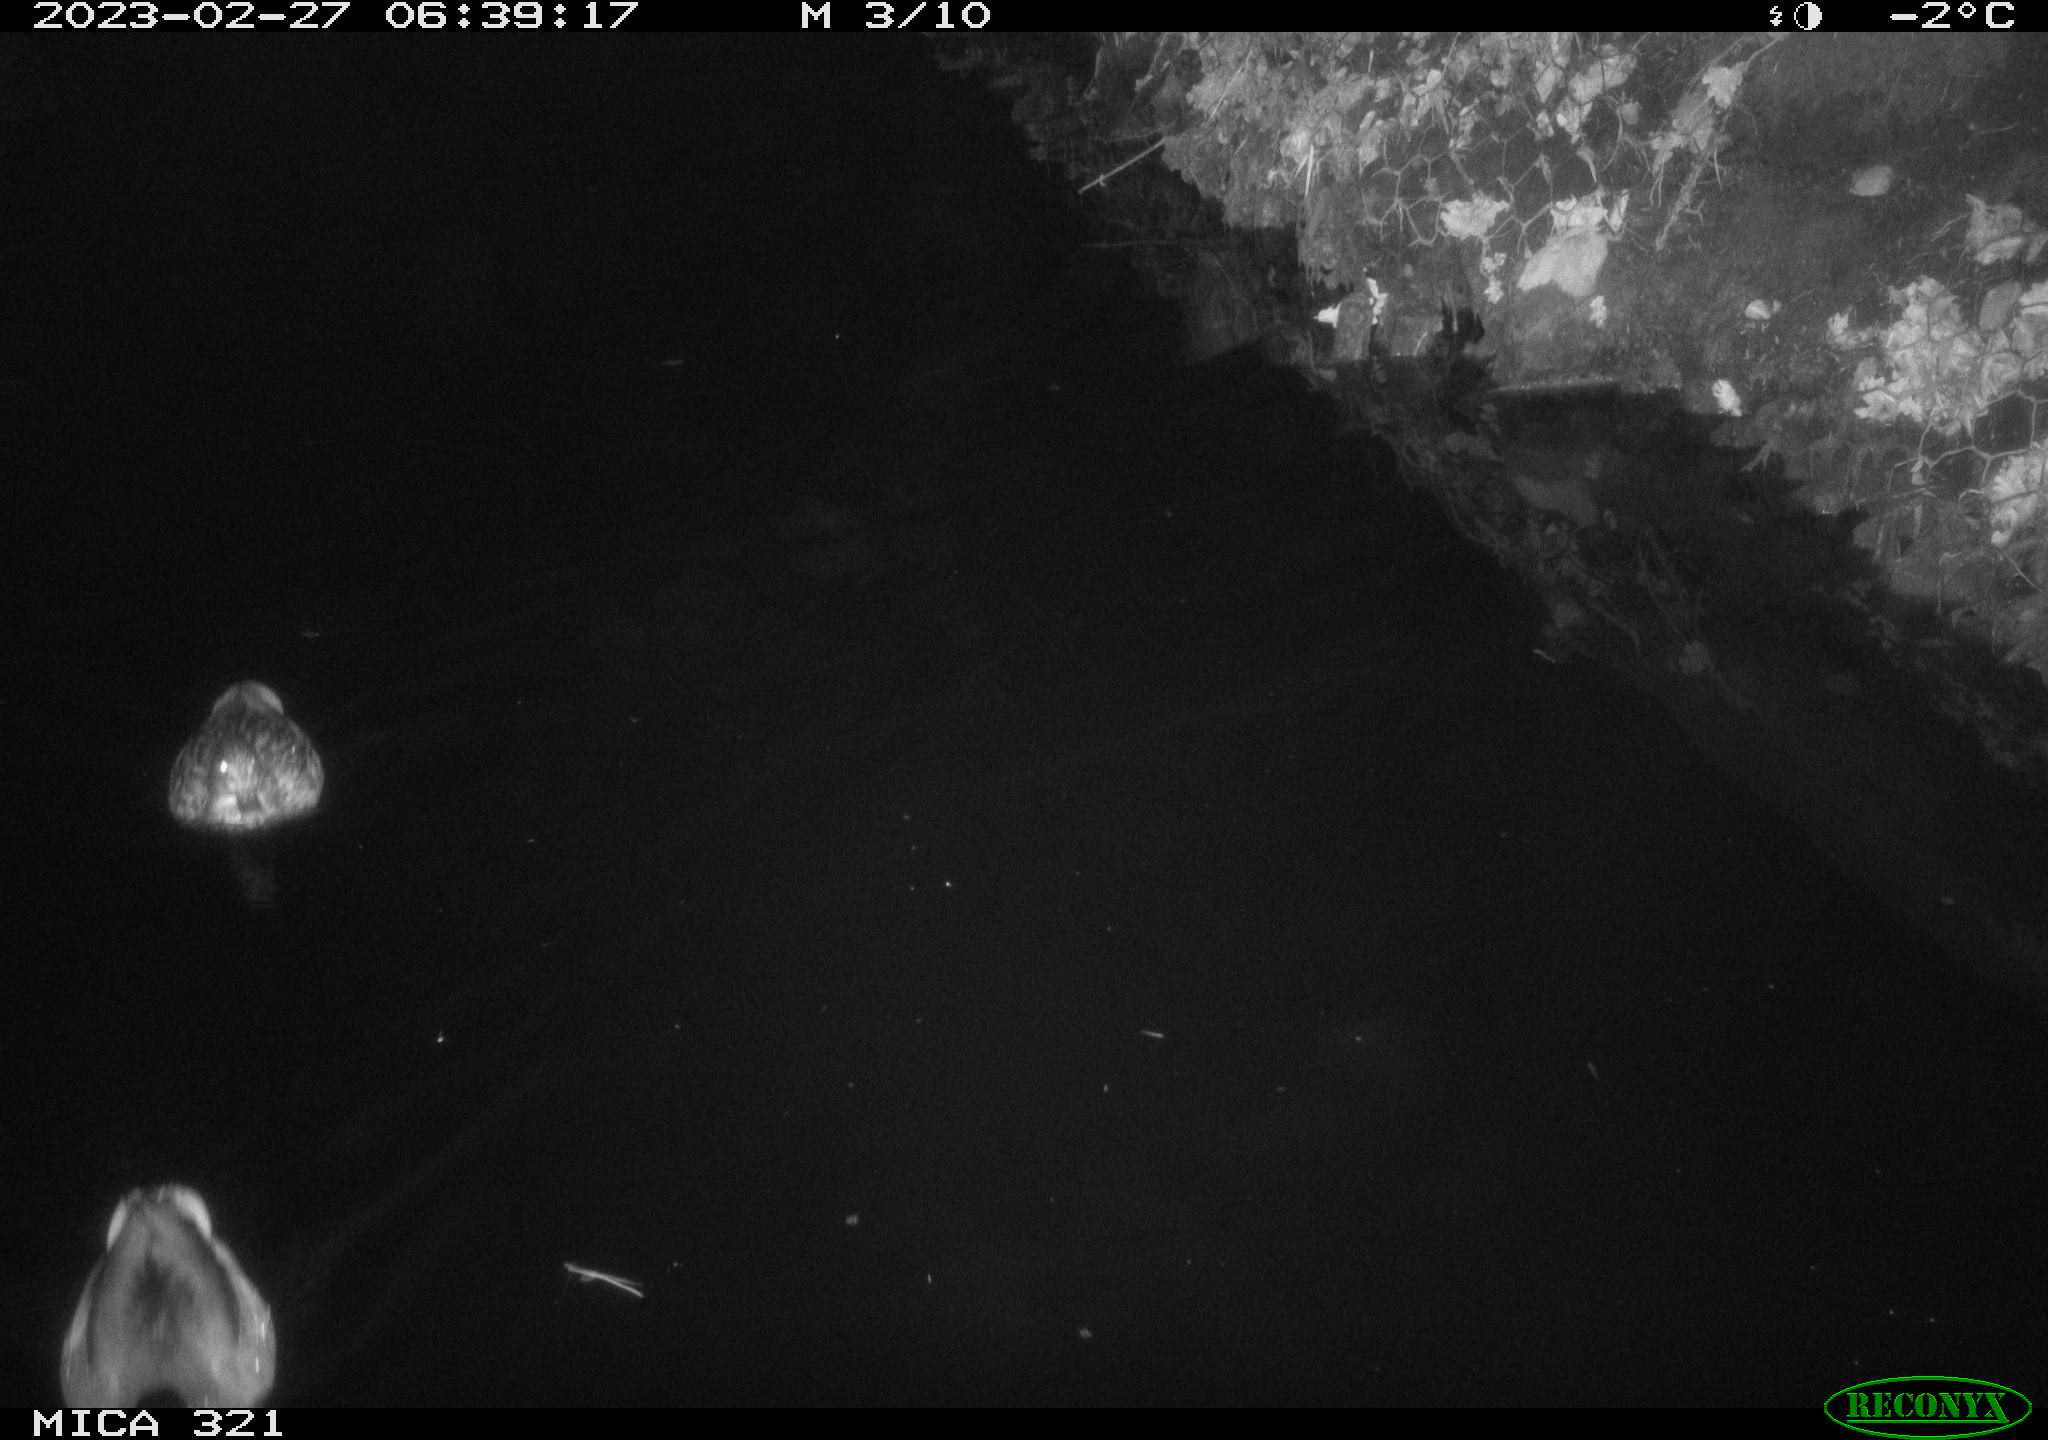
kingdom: Animalia
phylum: Chordata
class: Aves
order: Anseriformes
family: Anatidae
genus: Anas
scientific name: Anas
